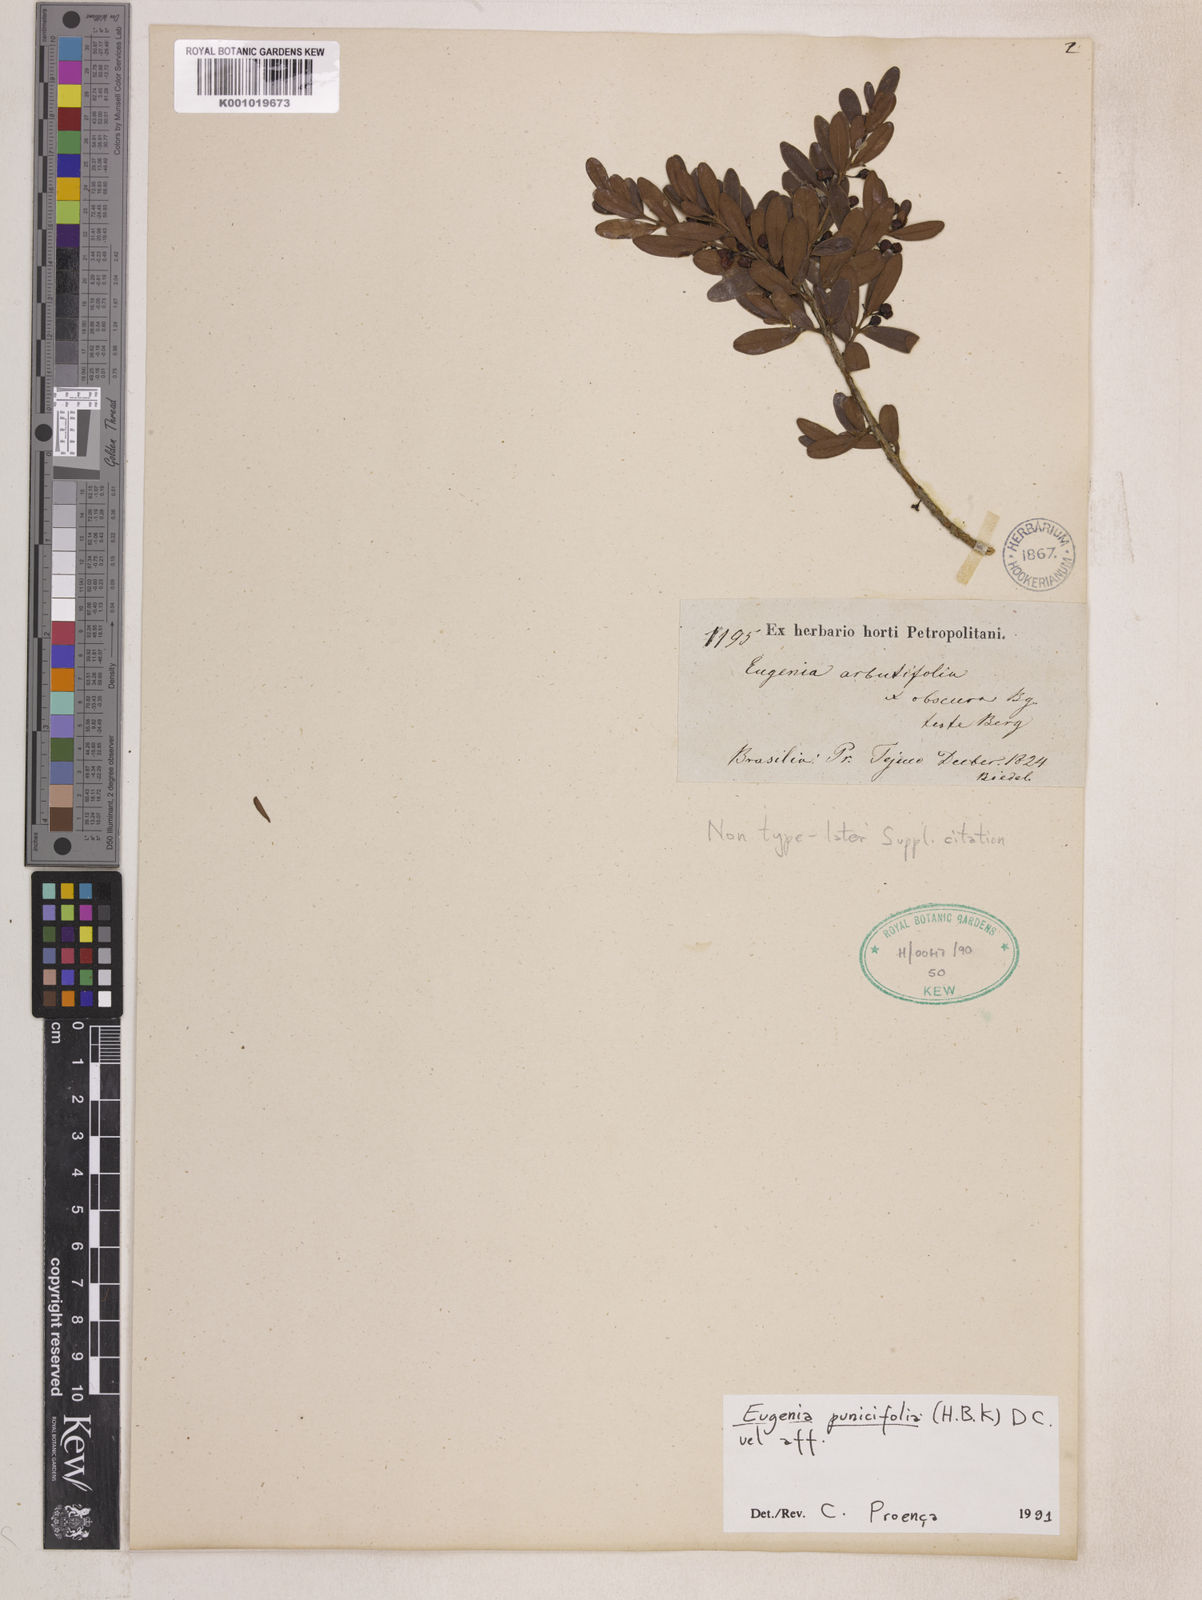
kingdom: Plantae
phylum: Tracheophyta
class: Magnoliopsida
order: Myrtales
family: Myrtaceae
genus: Eugenia
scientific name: Eugenia punicifolia
